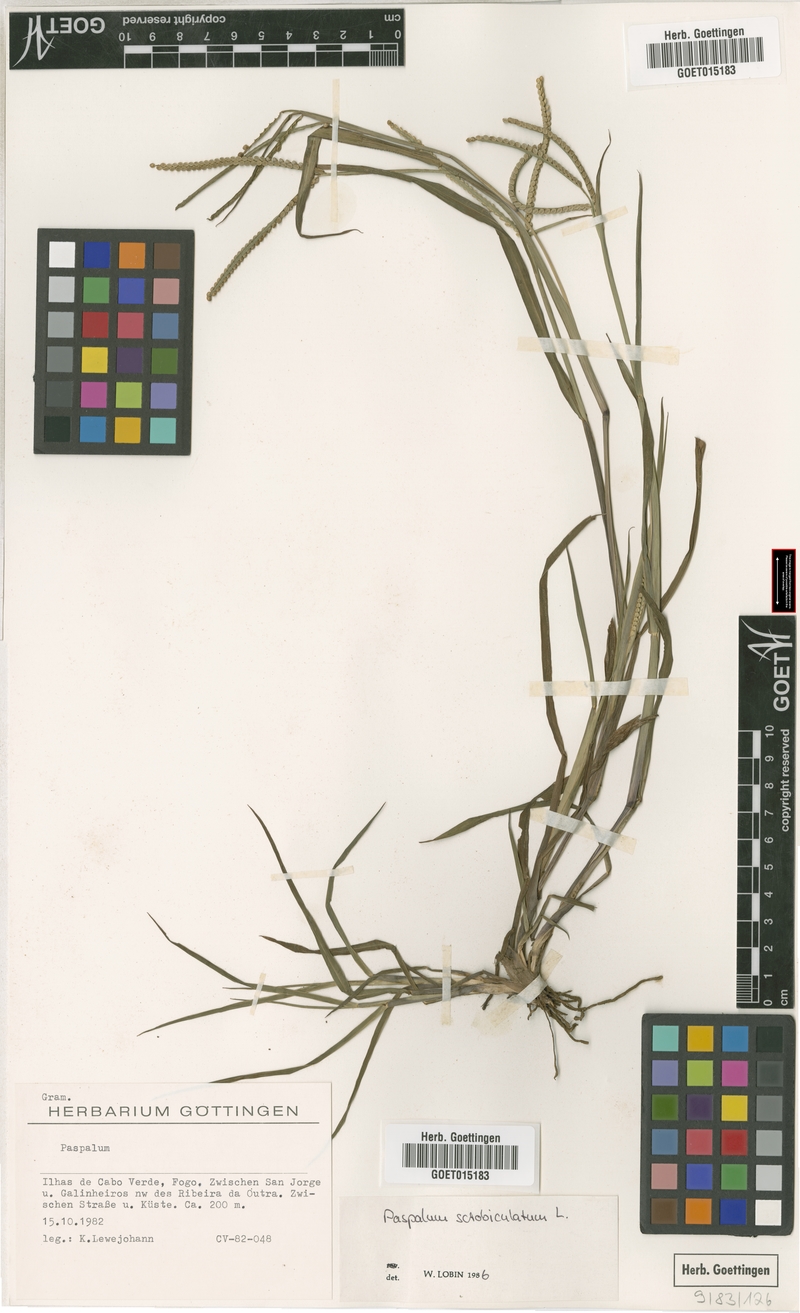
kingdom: Plantae
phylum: Tracheophyta
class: Liliopsida
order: Poales
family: Poaceae
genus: Paspalum
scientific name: Paspalum scrobiculatum
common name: Kodo millet
